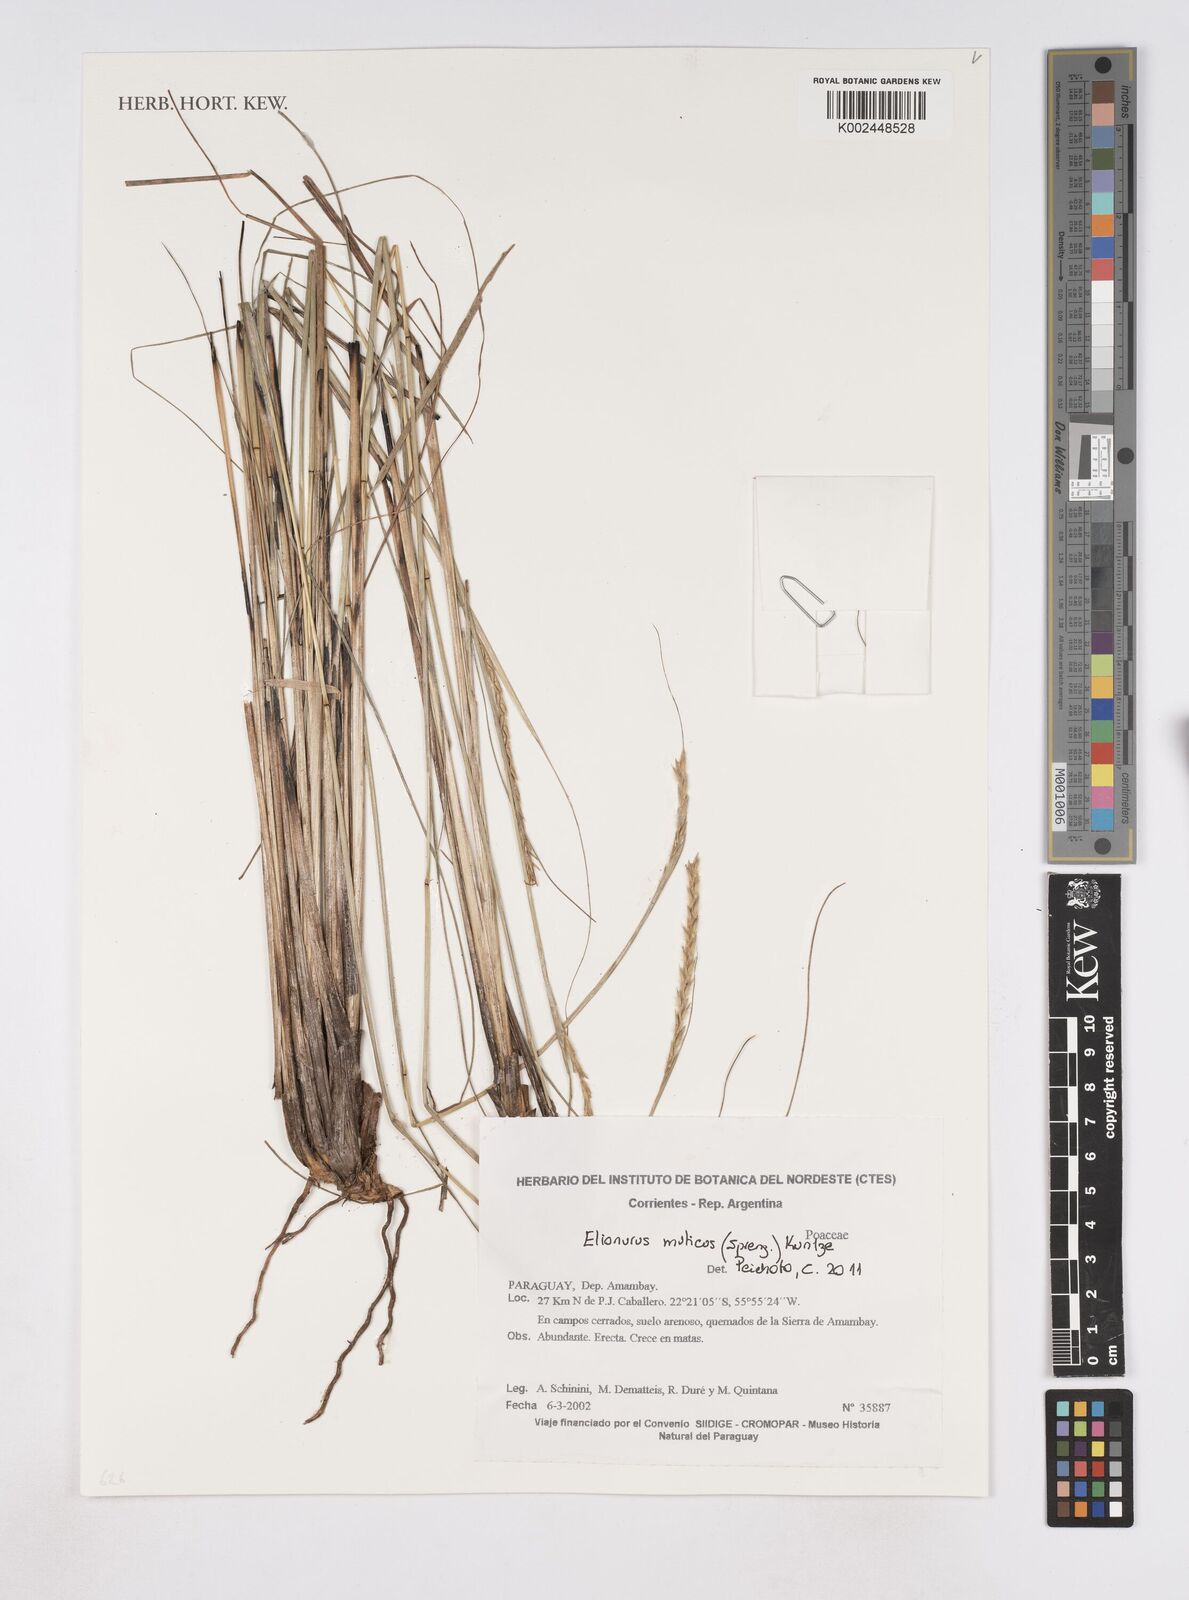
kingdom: Plantae
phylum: Tracheophyta
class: Liliopsida
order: Poales
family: Poaceae
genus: Elionurus
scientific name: Elionurus muticus
